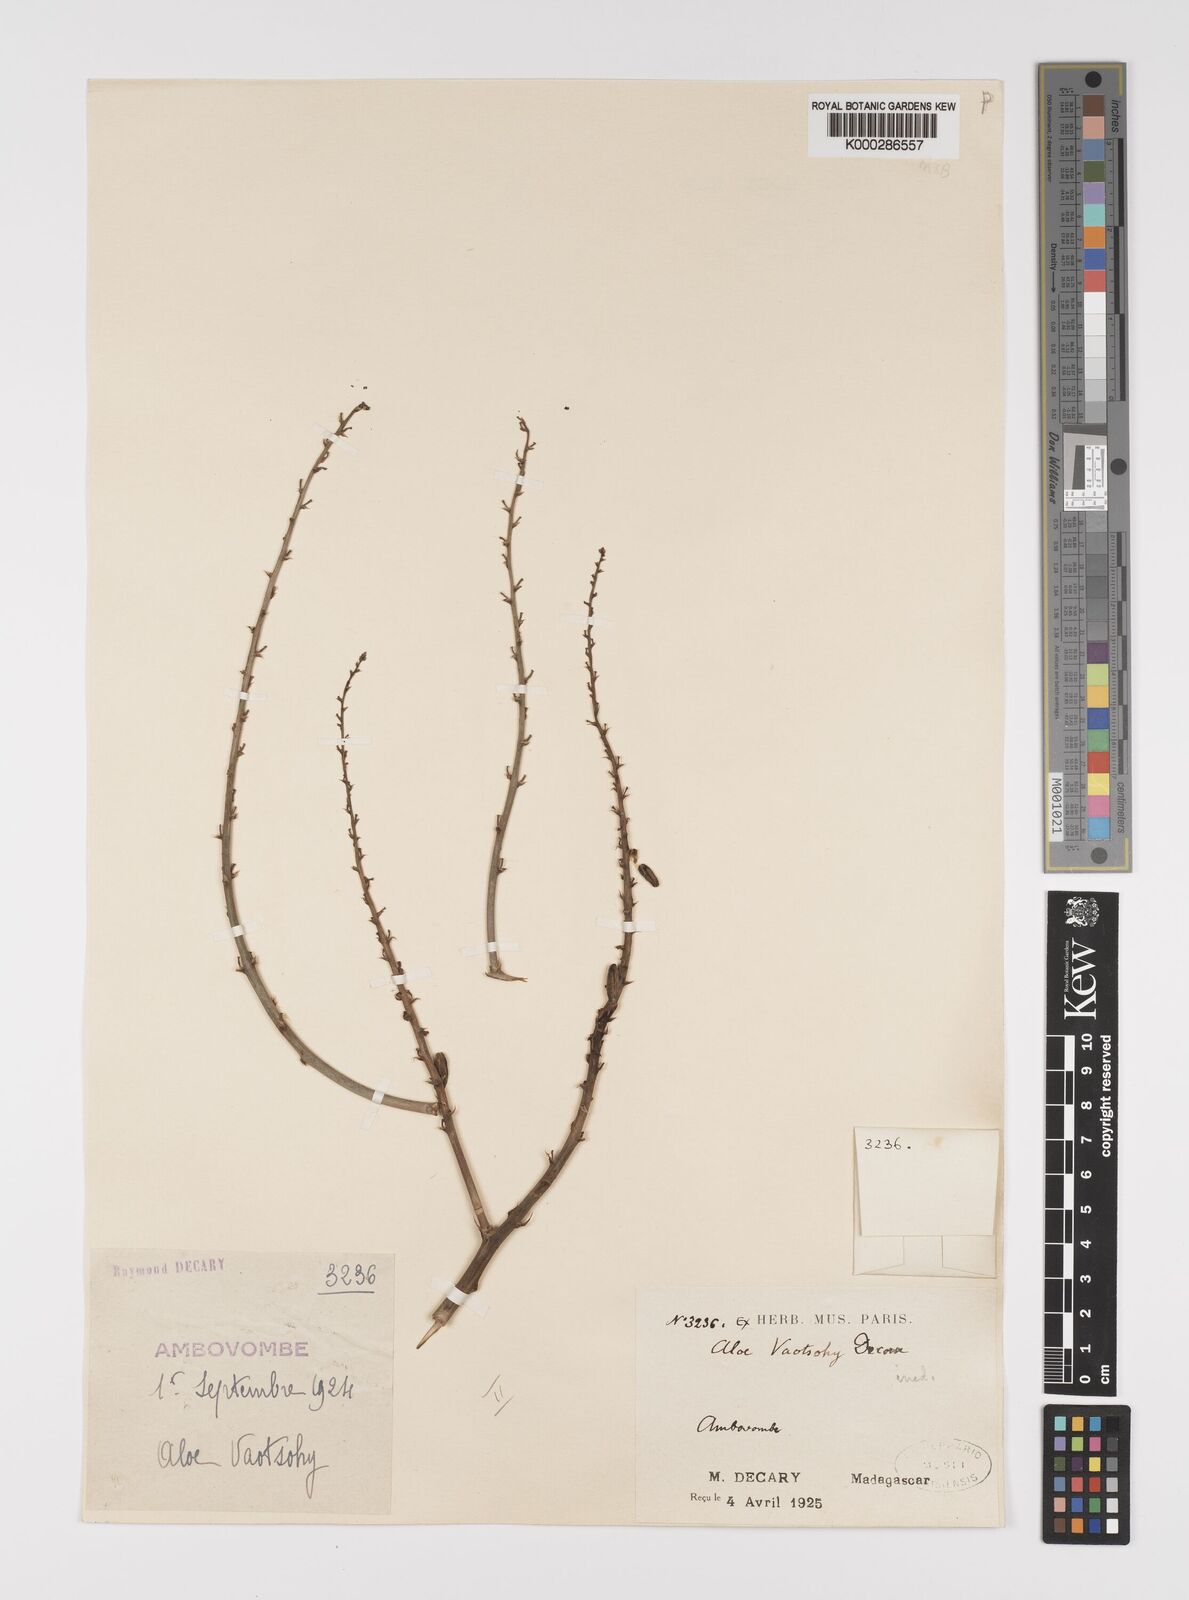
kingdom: Plantae
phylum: Tracheophyta
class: Liliopsida
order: Asparagales
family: Asphodelaceae
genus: Aloe
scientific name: Aloe divaricata
